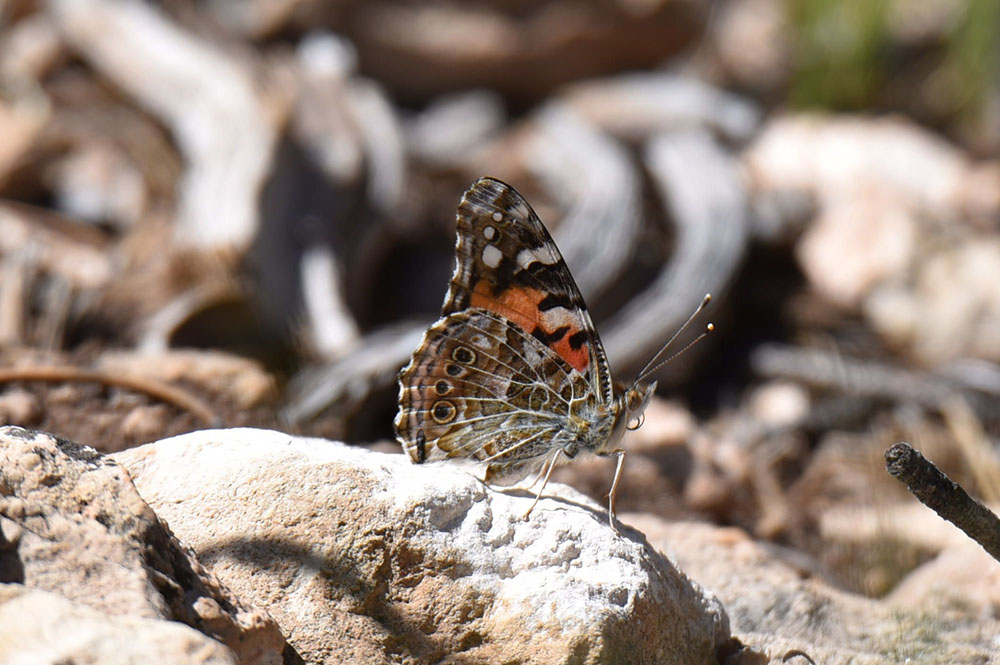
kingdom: Animalia
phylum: Arthropoda
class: Insecta
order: Lepidoptera
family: Nymphalidae
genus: Vanessa
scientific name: Vanessa cardui
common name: Painted lady
